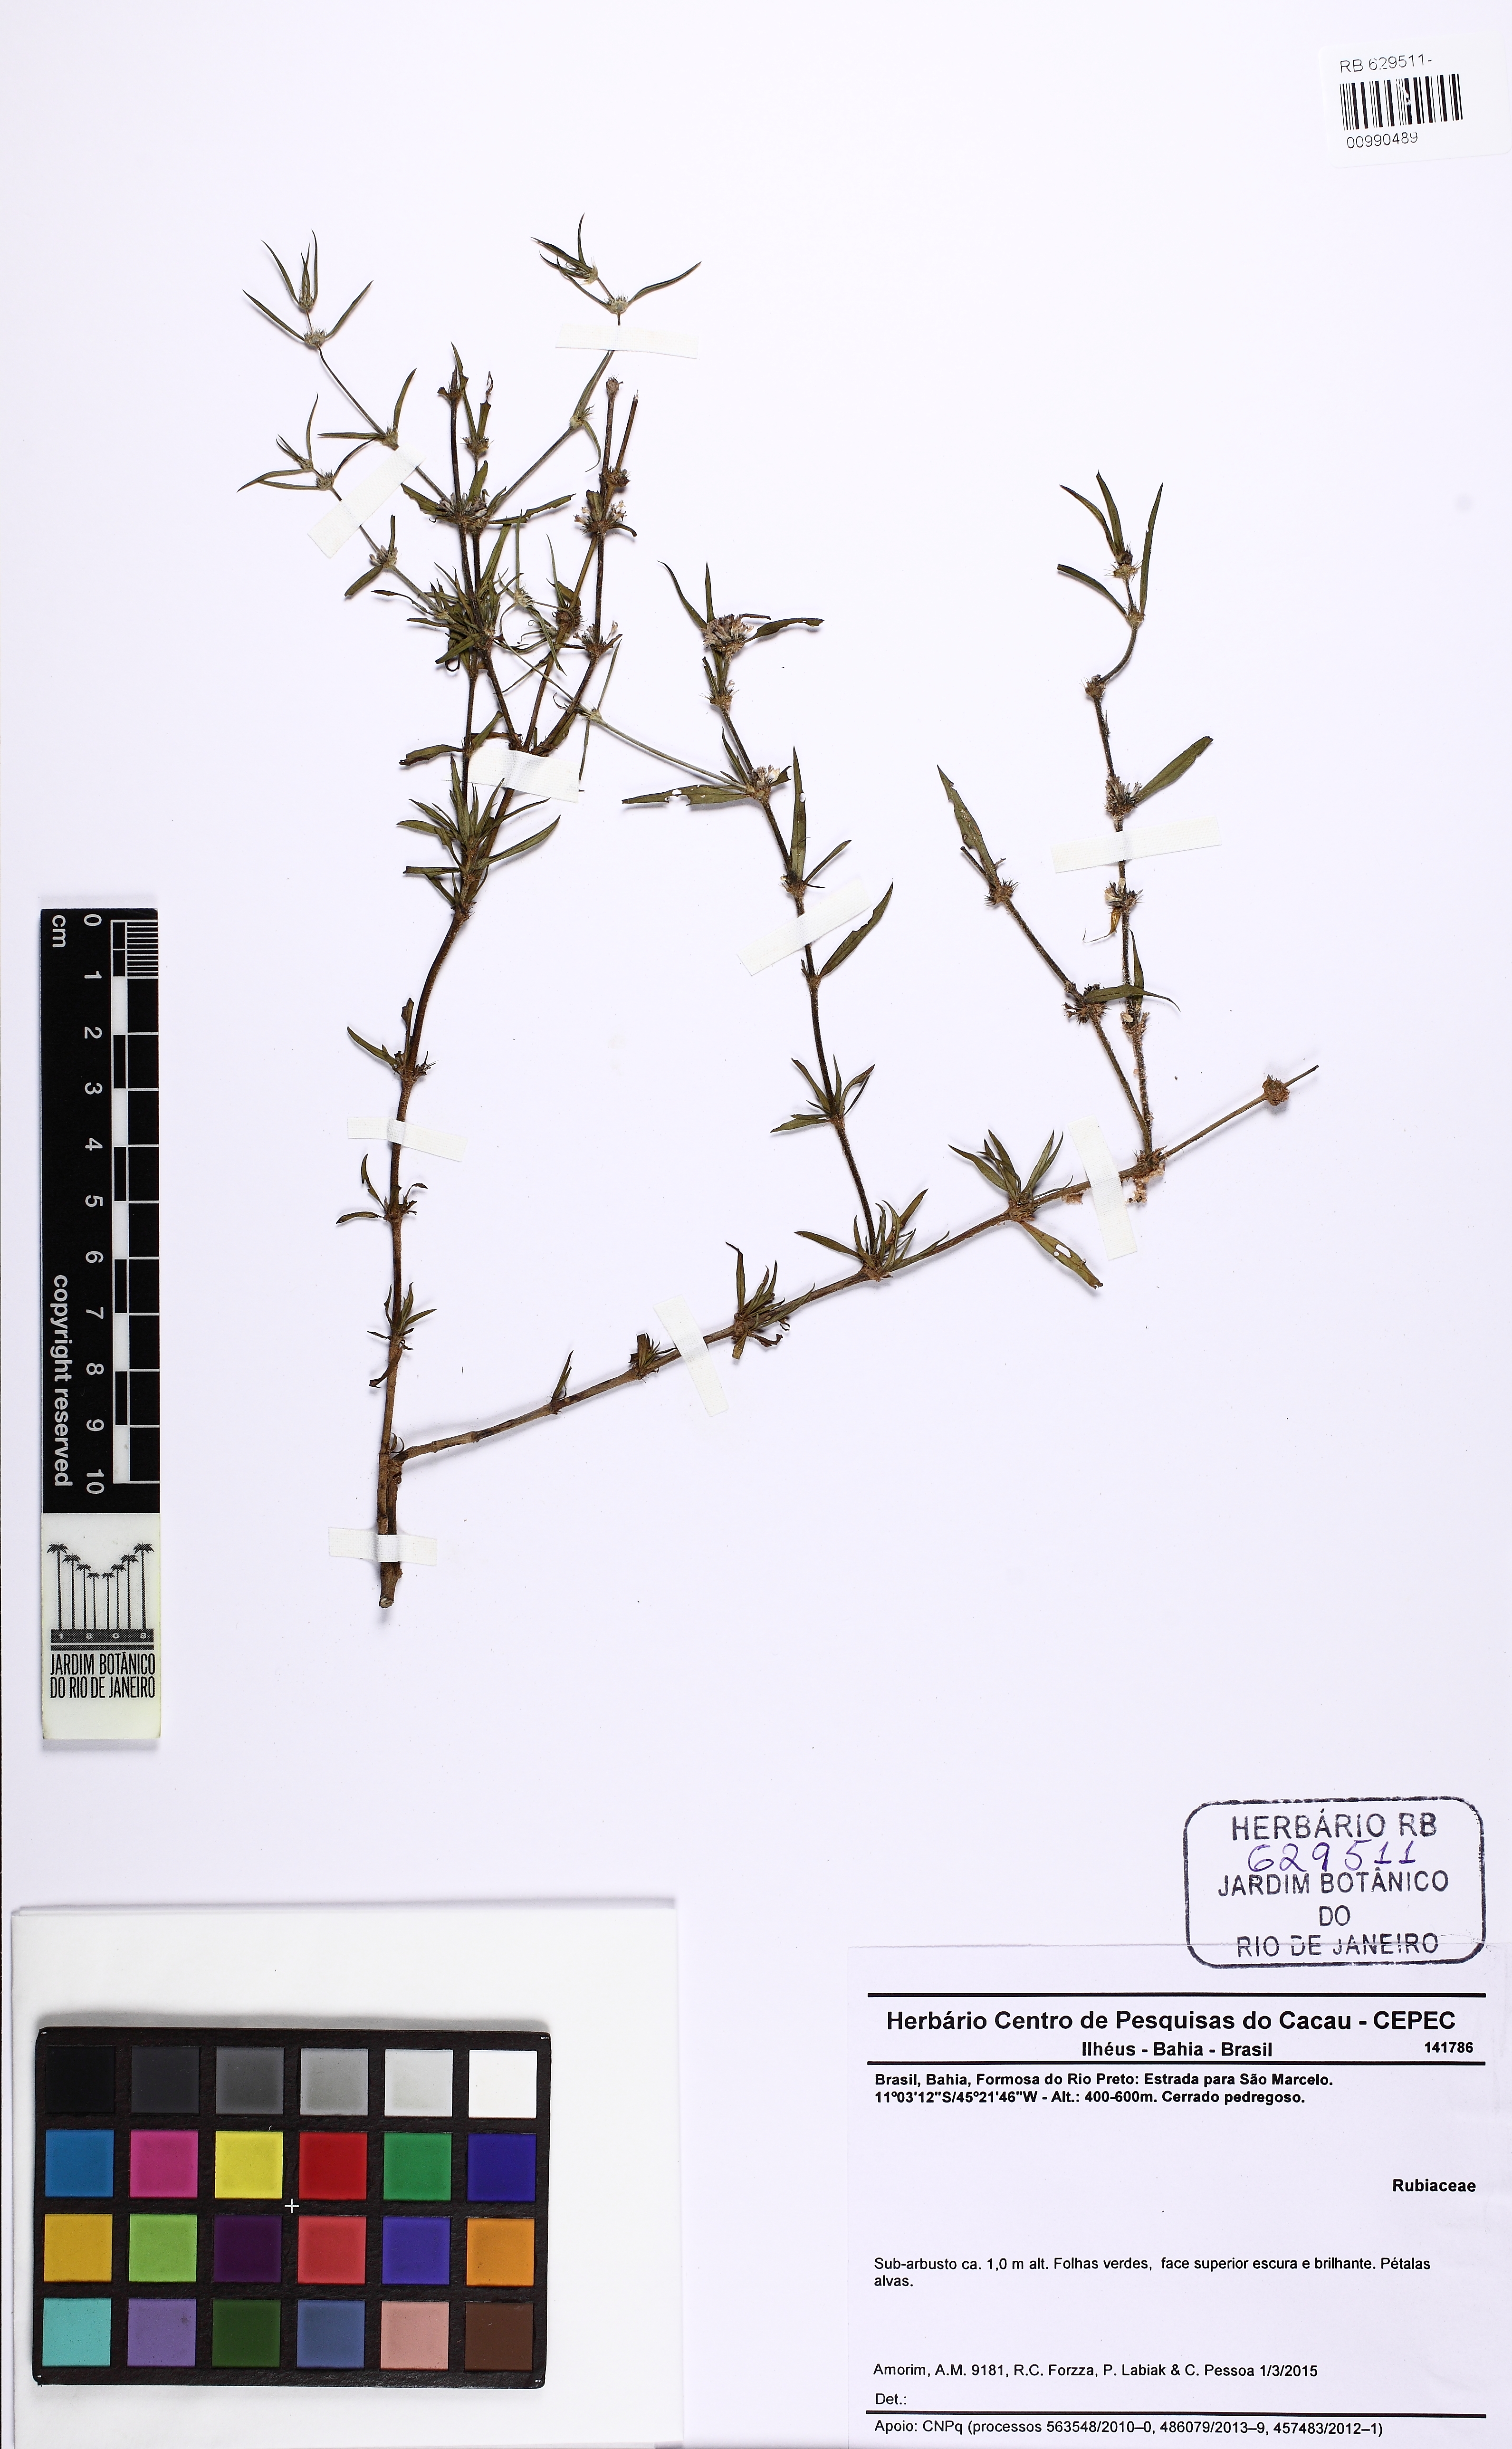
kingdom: Plantae
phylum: Tracheophyta
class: Magnoliopsida
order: Gentianales
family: Rubiaceae
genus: Staelia
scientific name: Staelia
